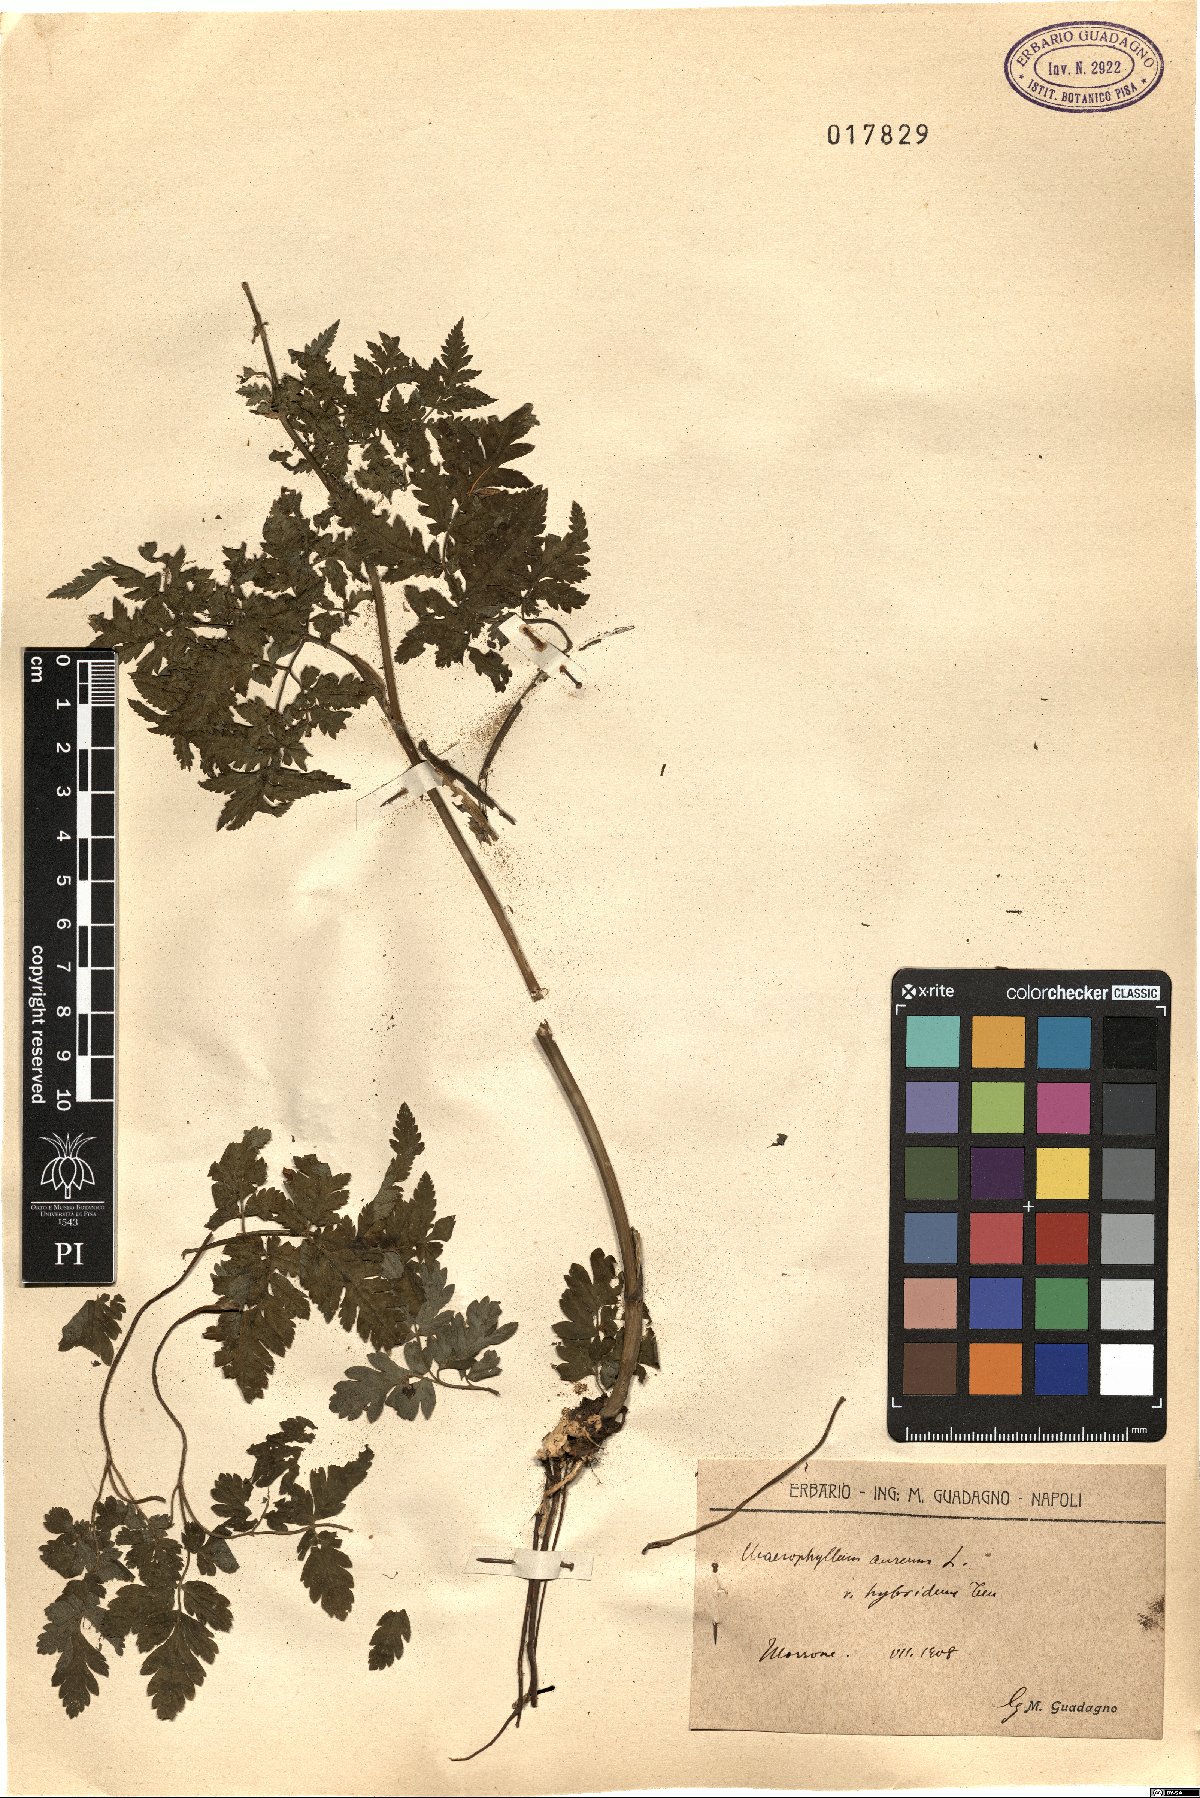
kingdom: Plantae
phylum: Tracheophyta
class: Magnoliopsida
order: Apiales
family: Apiaceae
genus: Chaerophyllum
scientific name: Chaerophyllum aureum
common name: Golden chervil
